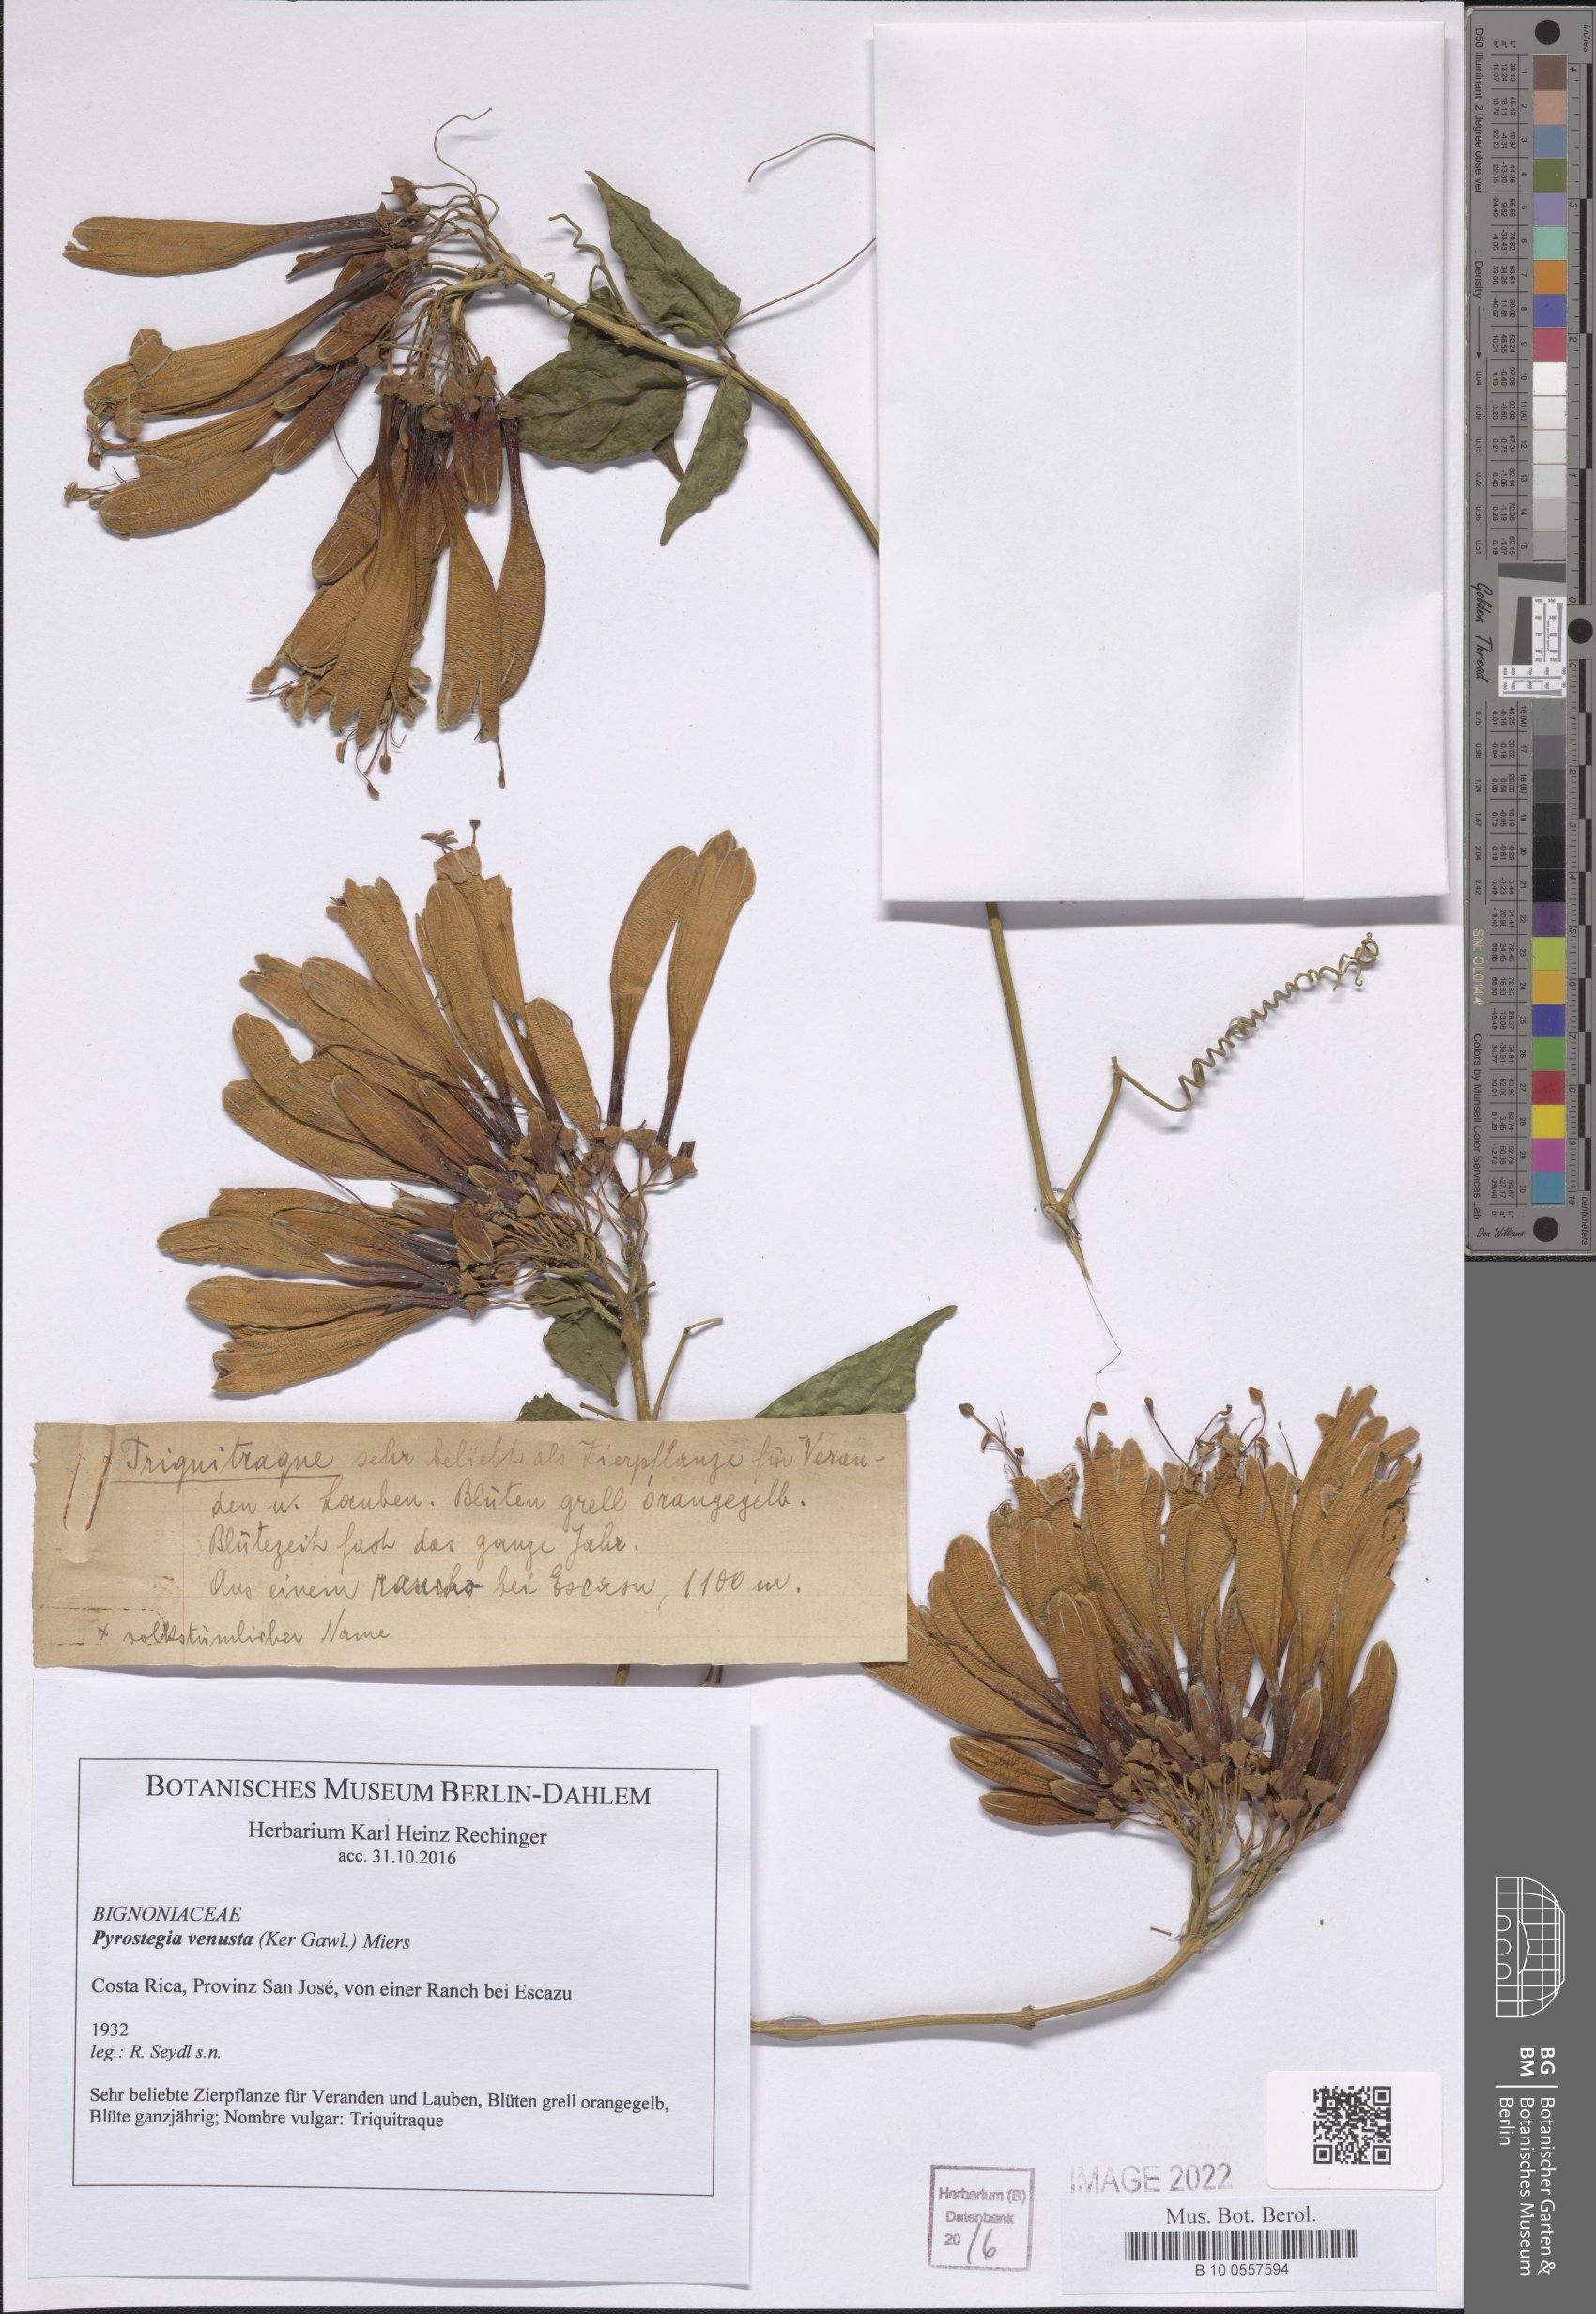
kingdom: Plantae
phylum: Tracheophyta
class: Magnoliopsida
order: Lamiales
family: Bignoniaceae
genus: Pyrostegia
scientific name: Pyrostegia venusta
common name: Flamevine
